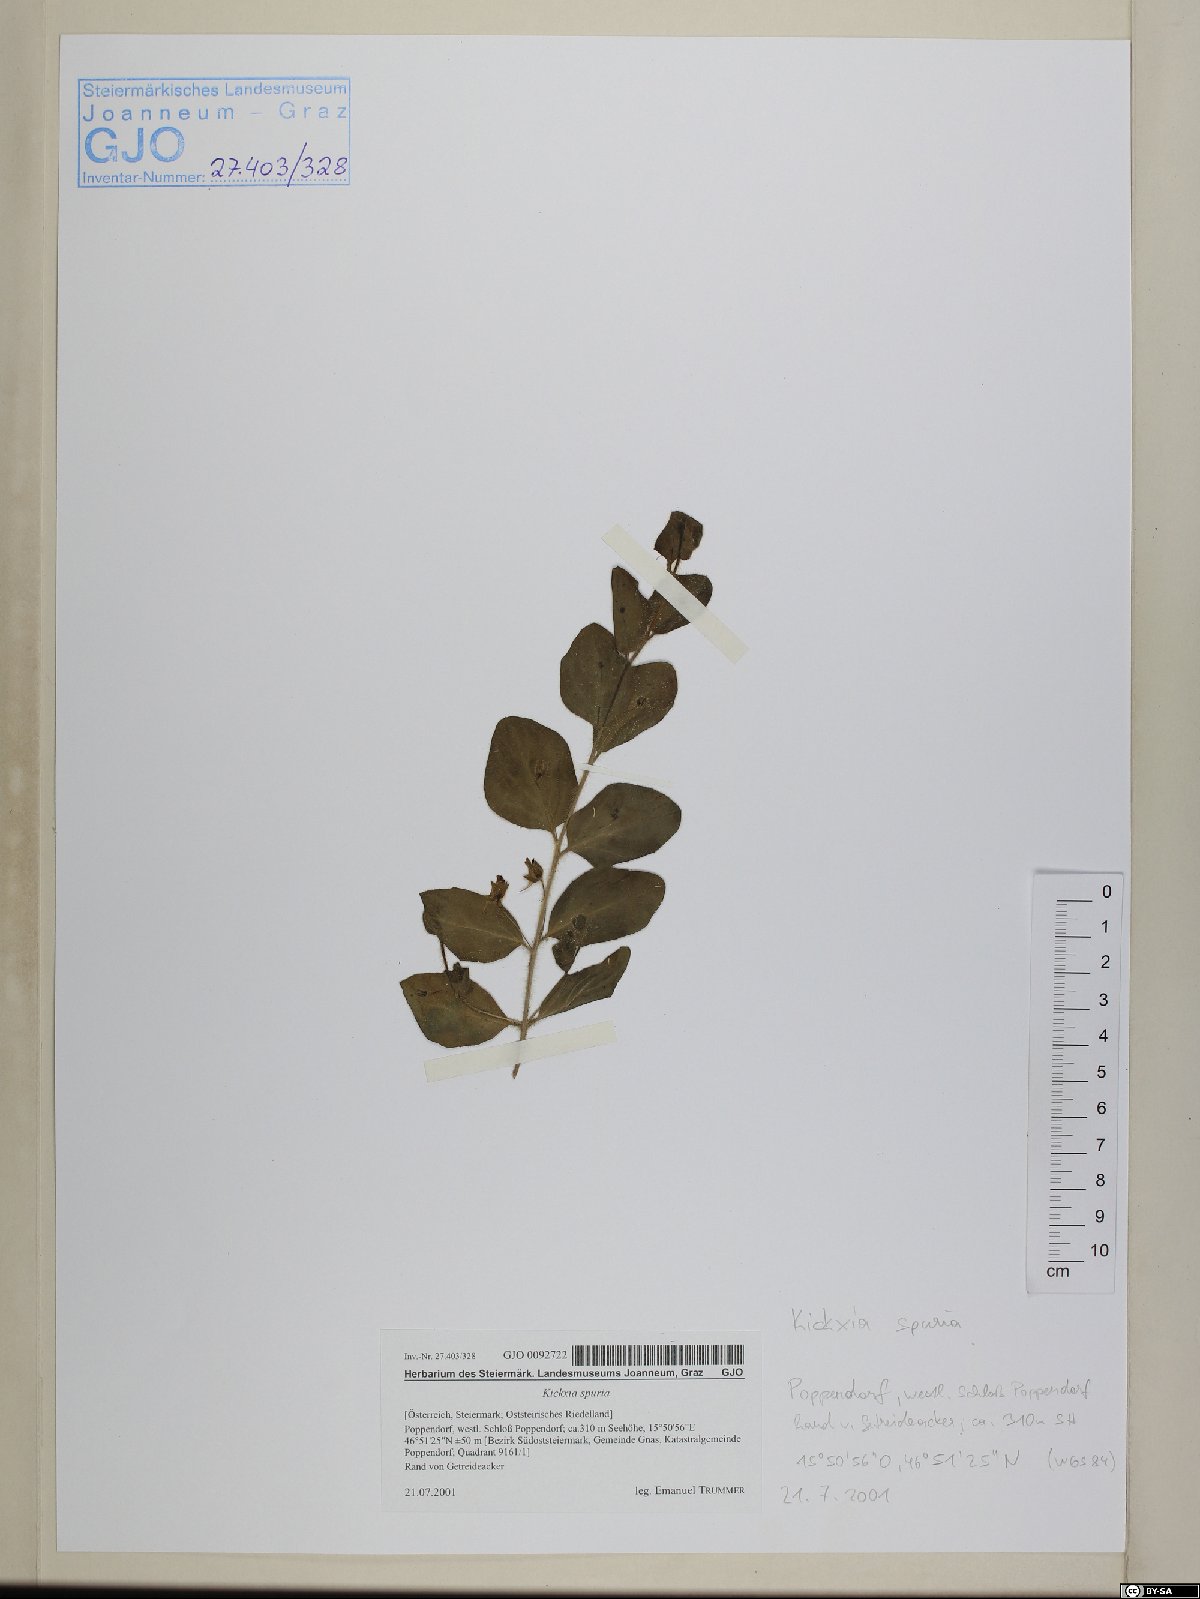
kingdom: Plantae
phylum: Tracheophyta
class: Magnoliopsida
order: Lamiales
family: Plantaginaceae
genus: Kickxia
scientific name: Kickxia spuria
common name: Round-leaved fluellen
